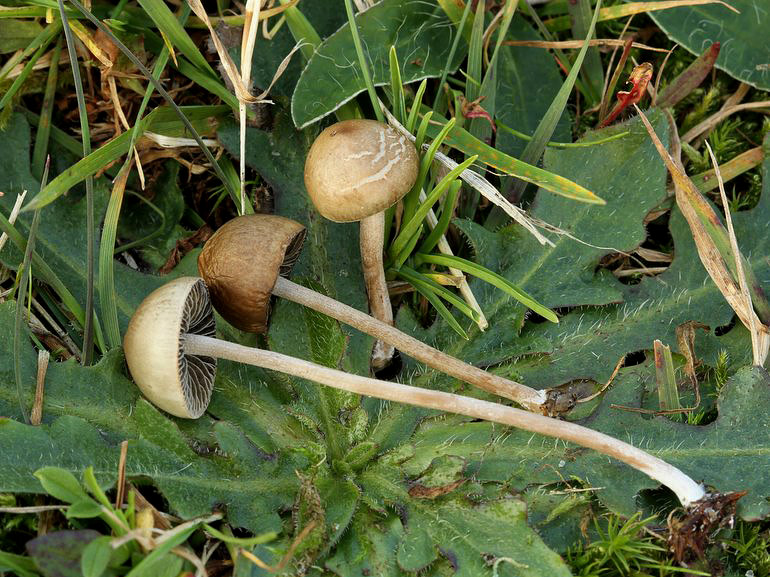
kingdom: Fungi
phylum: Basidiomycota
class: Agaricomycetes
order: Agaricales
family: Bolbitiaceae
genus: Panaeolus
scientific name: Panaeolus olivaceus
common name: lysstokket glanshat
